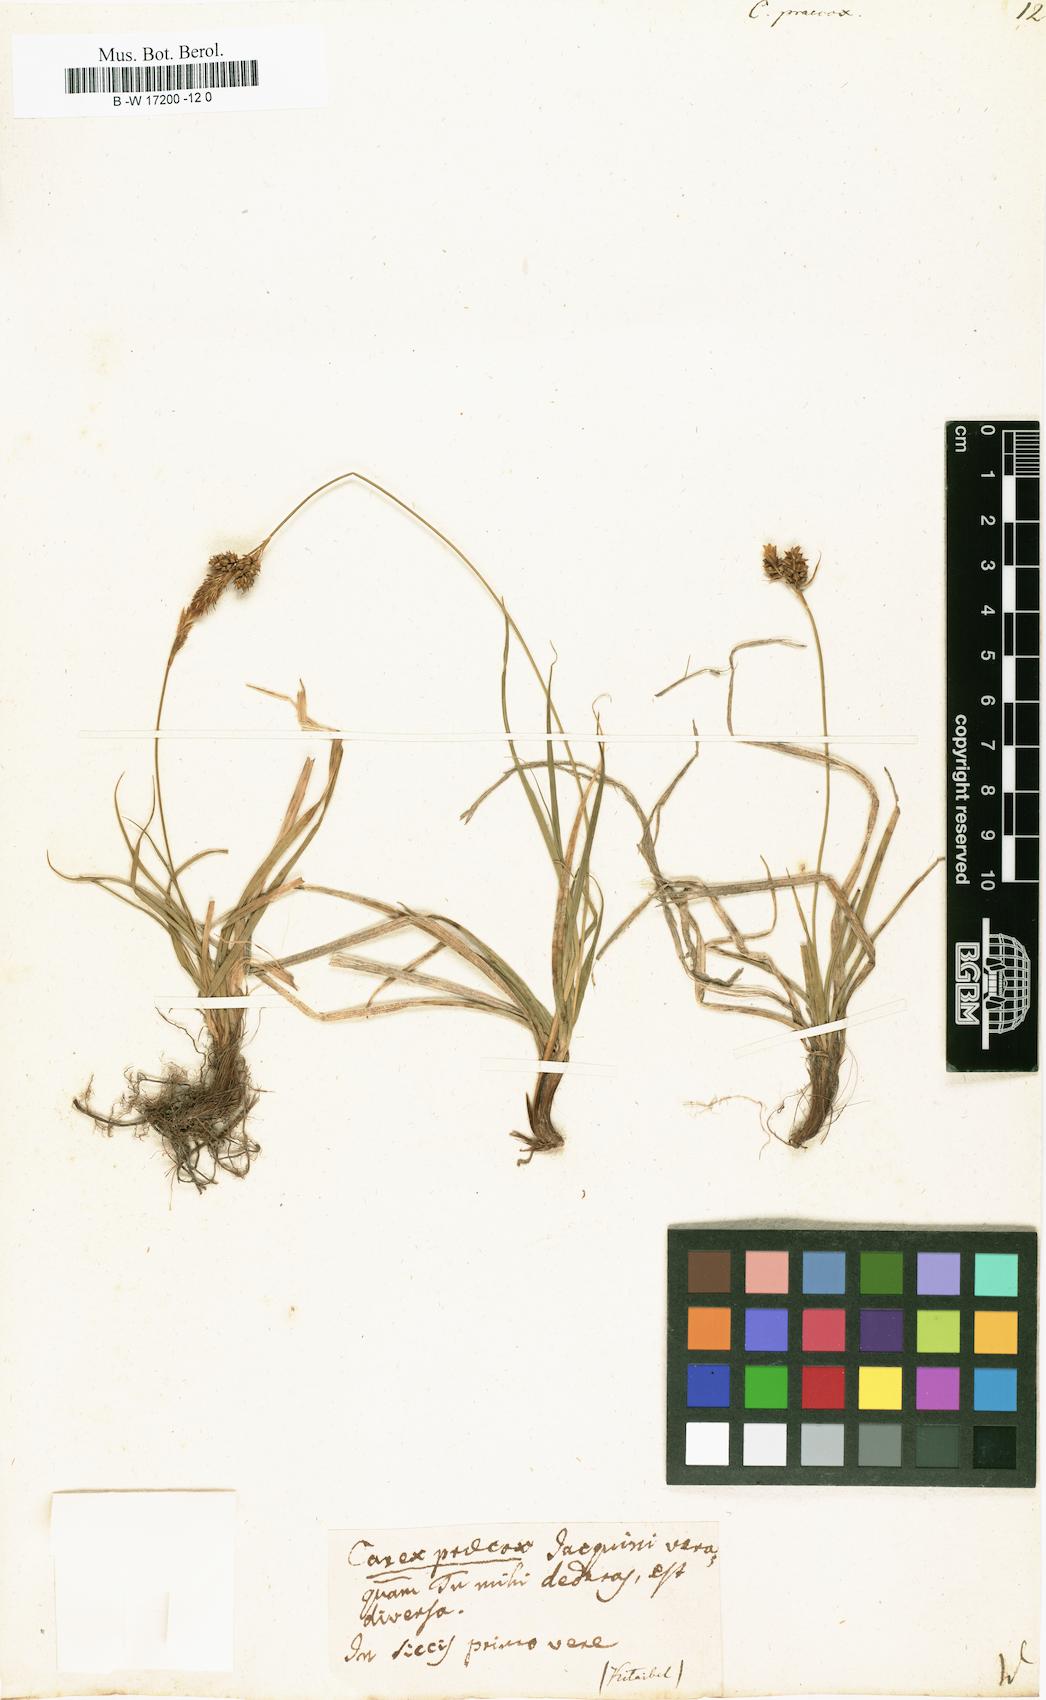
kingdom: Plantae
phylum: Tracheophyta
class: Liliopsida
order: Poales
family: Cyperaceae
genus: Carex
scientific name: Carex praecox
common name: Early sedge
